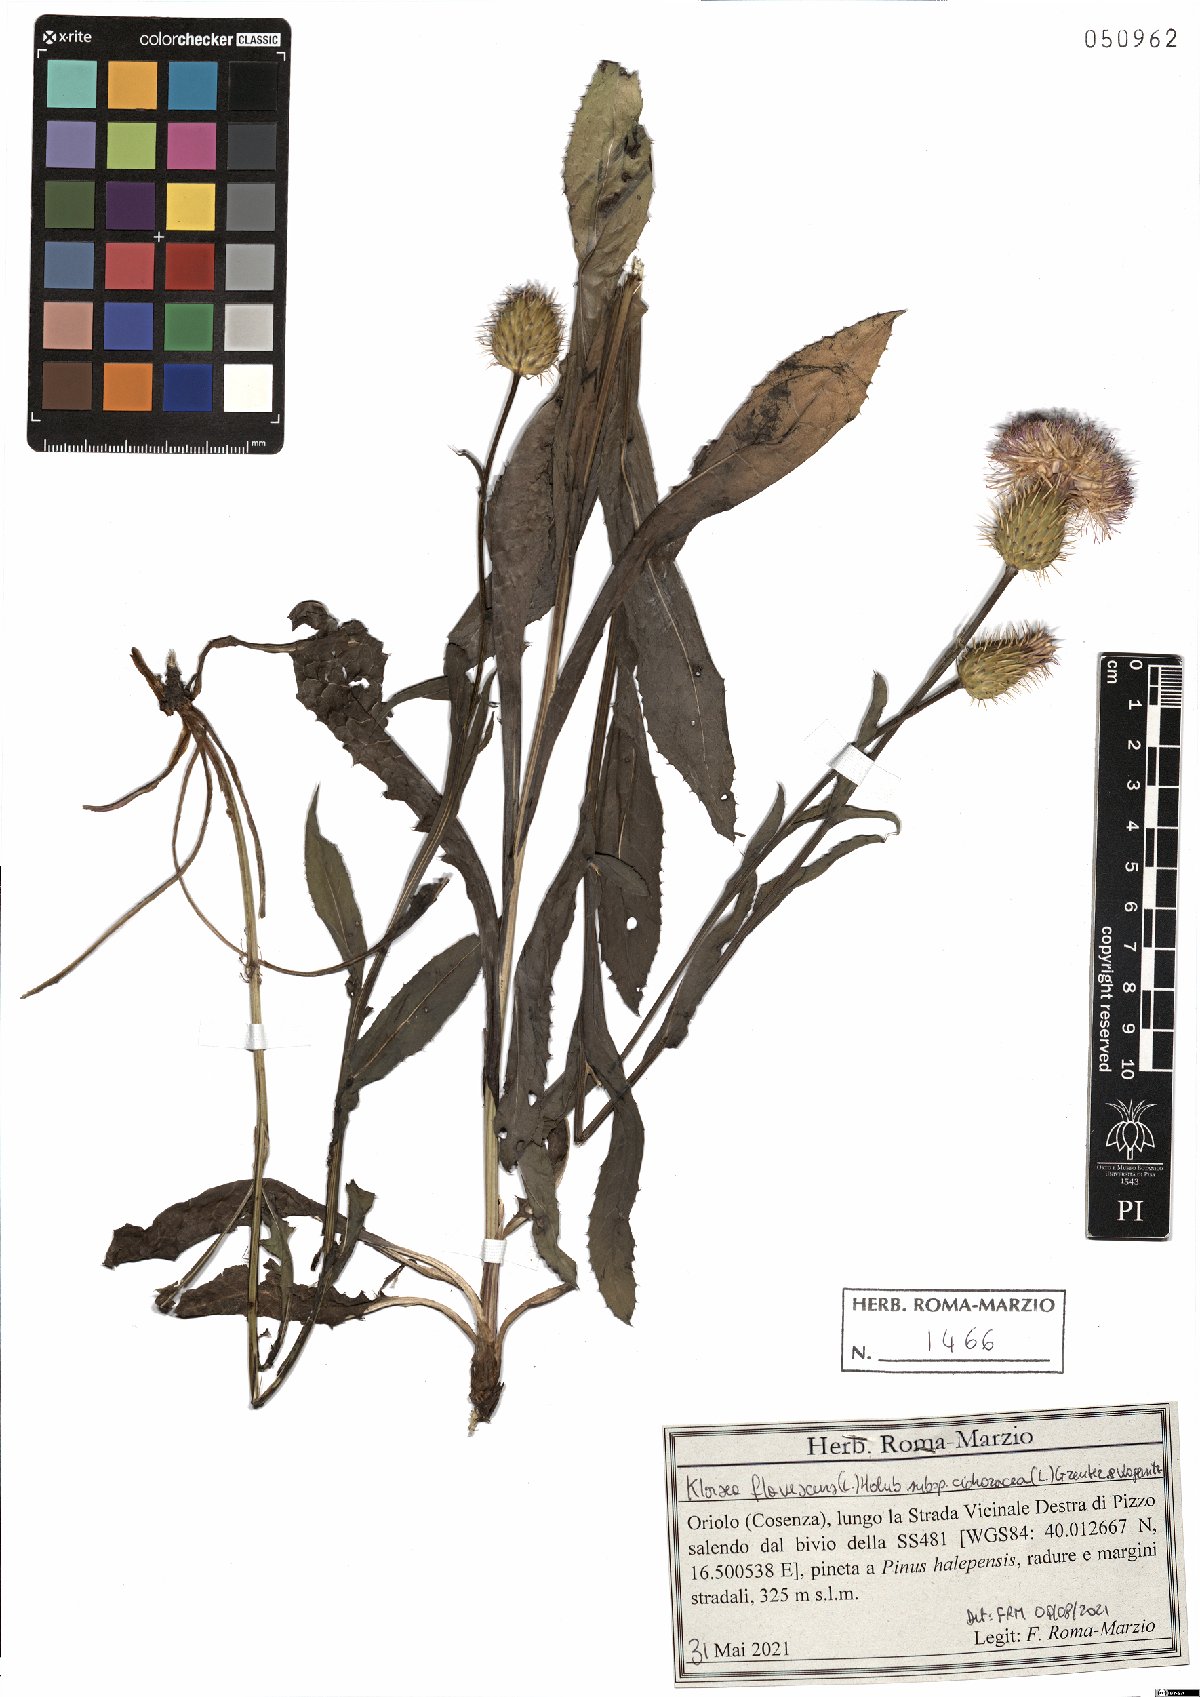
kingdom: Plantae
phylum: Tracheophyta
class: Magnoliopsida
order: Asterales
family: Asteraceae
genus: Klasea
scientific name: Klasea flavescens
